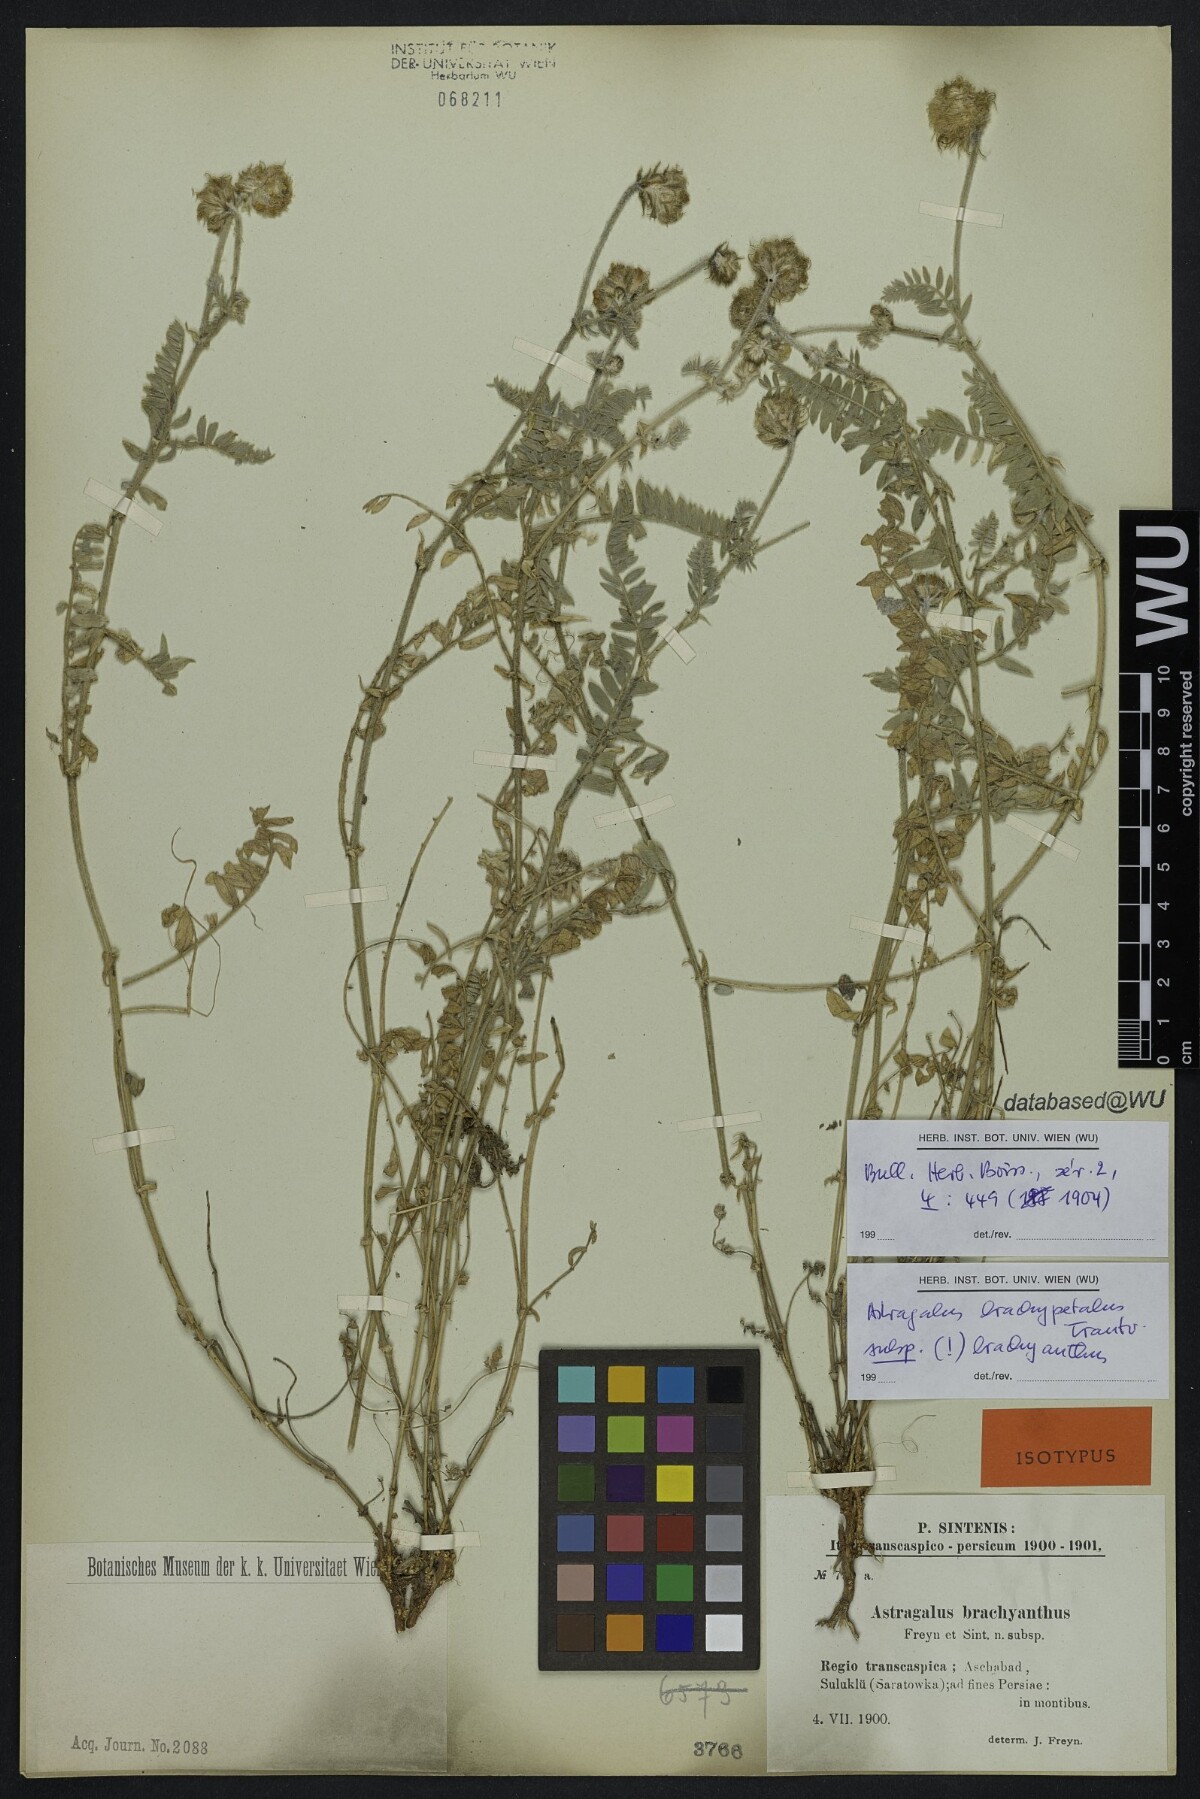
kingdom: Plantae
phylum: Tracheophyta
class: Magnoliopsida
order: Fabales
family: Fabaceae
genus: Astragalus
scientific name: Astragalus brachypetalus
